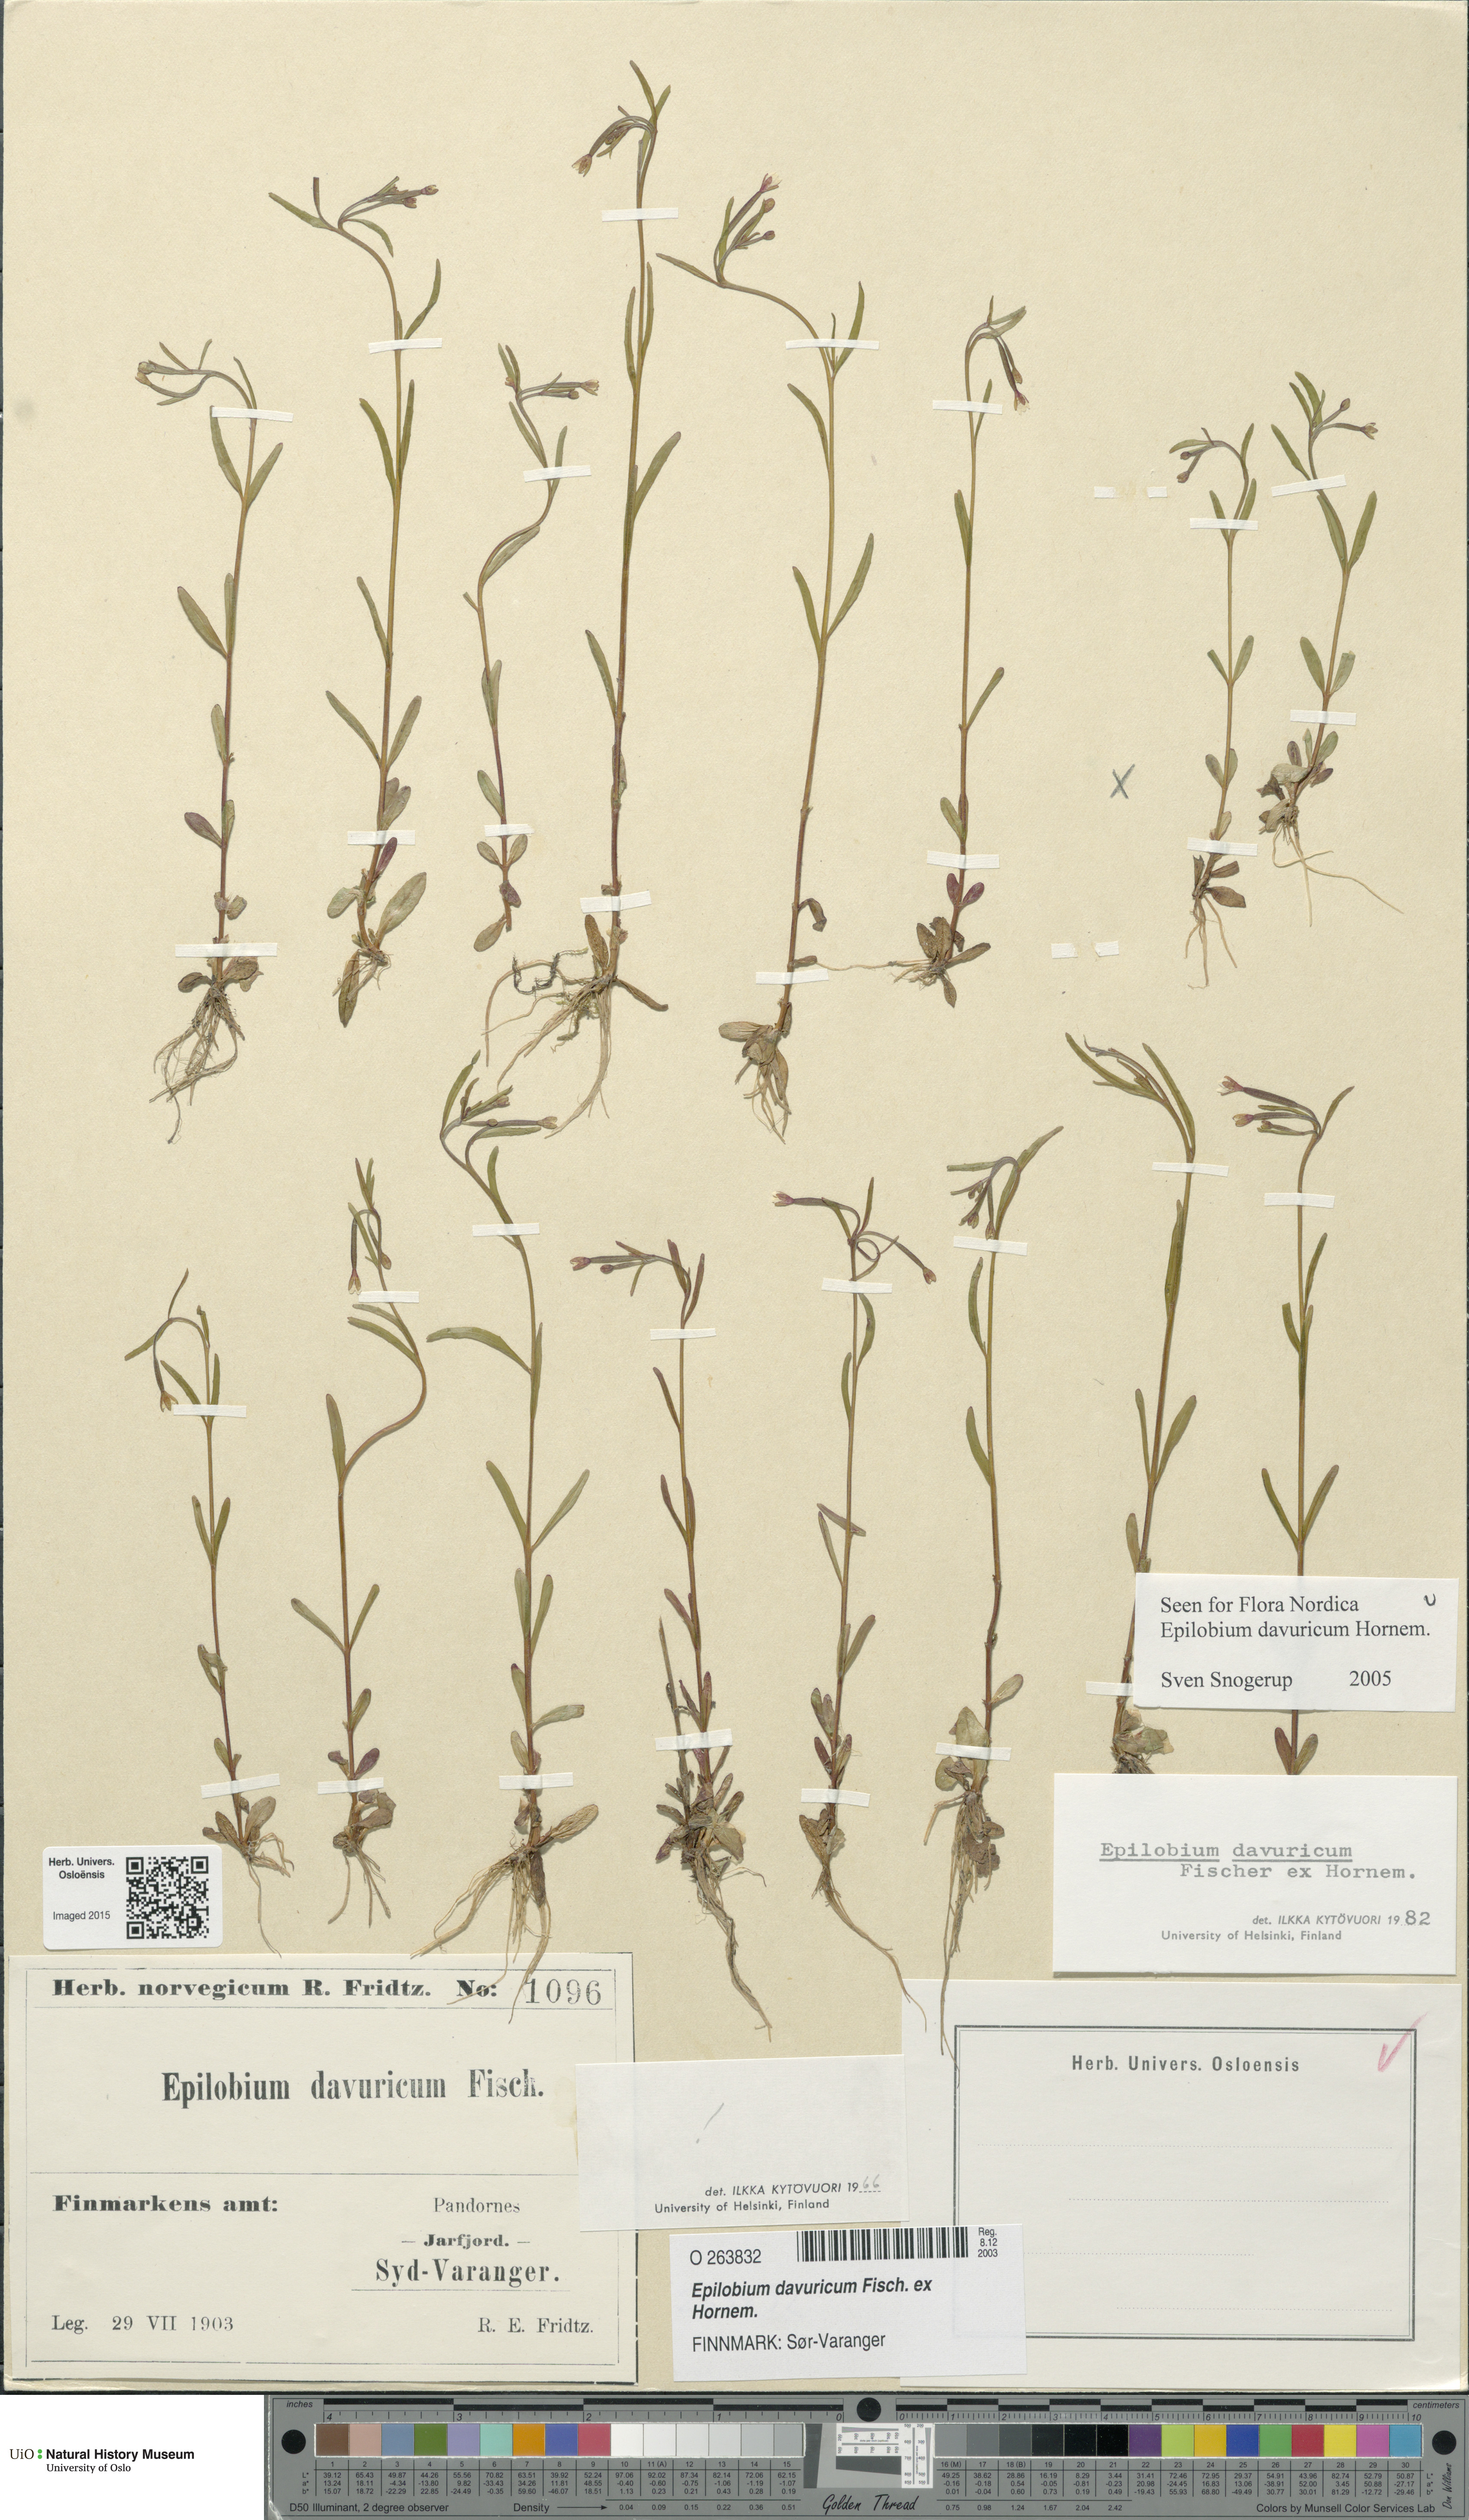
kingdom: Plantae
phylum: Tracheophyta
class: Magnoliopsida
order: Myrtales
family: Onagraceae
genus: Epilobium
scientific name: Epilobium davuricum
